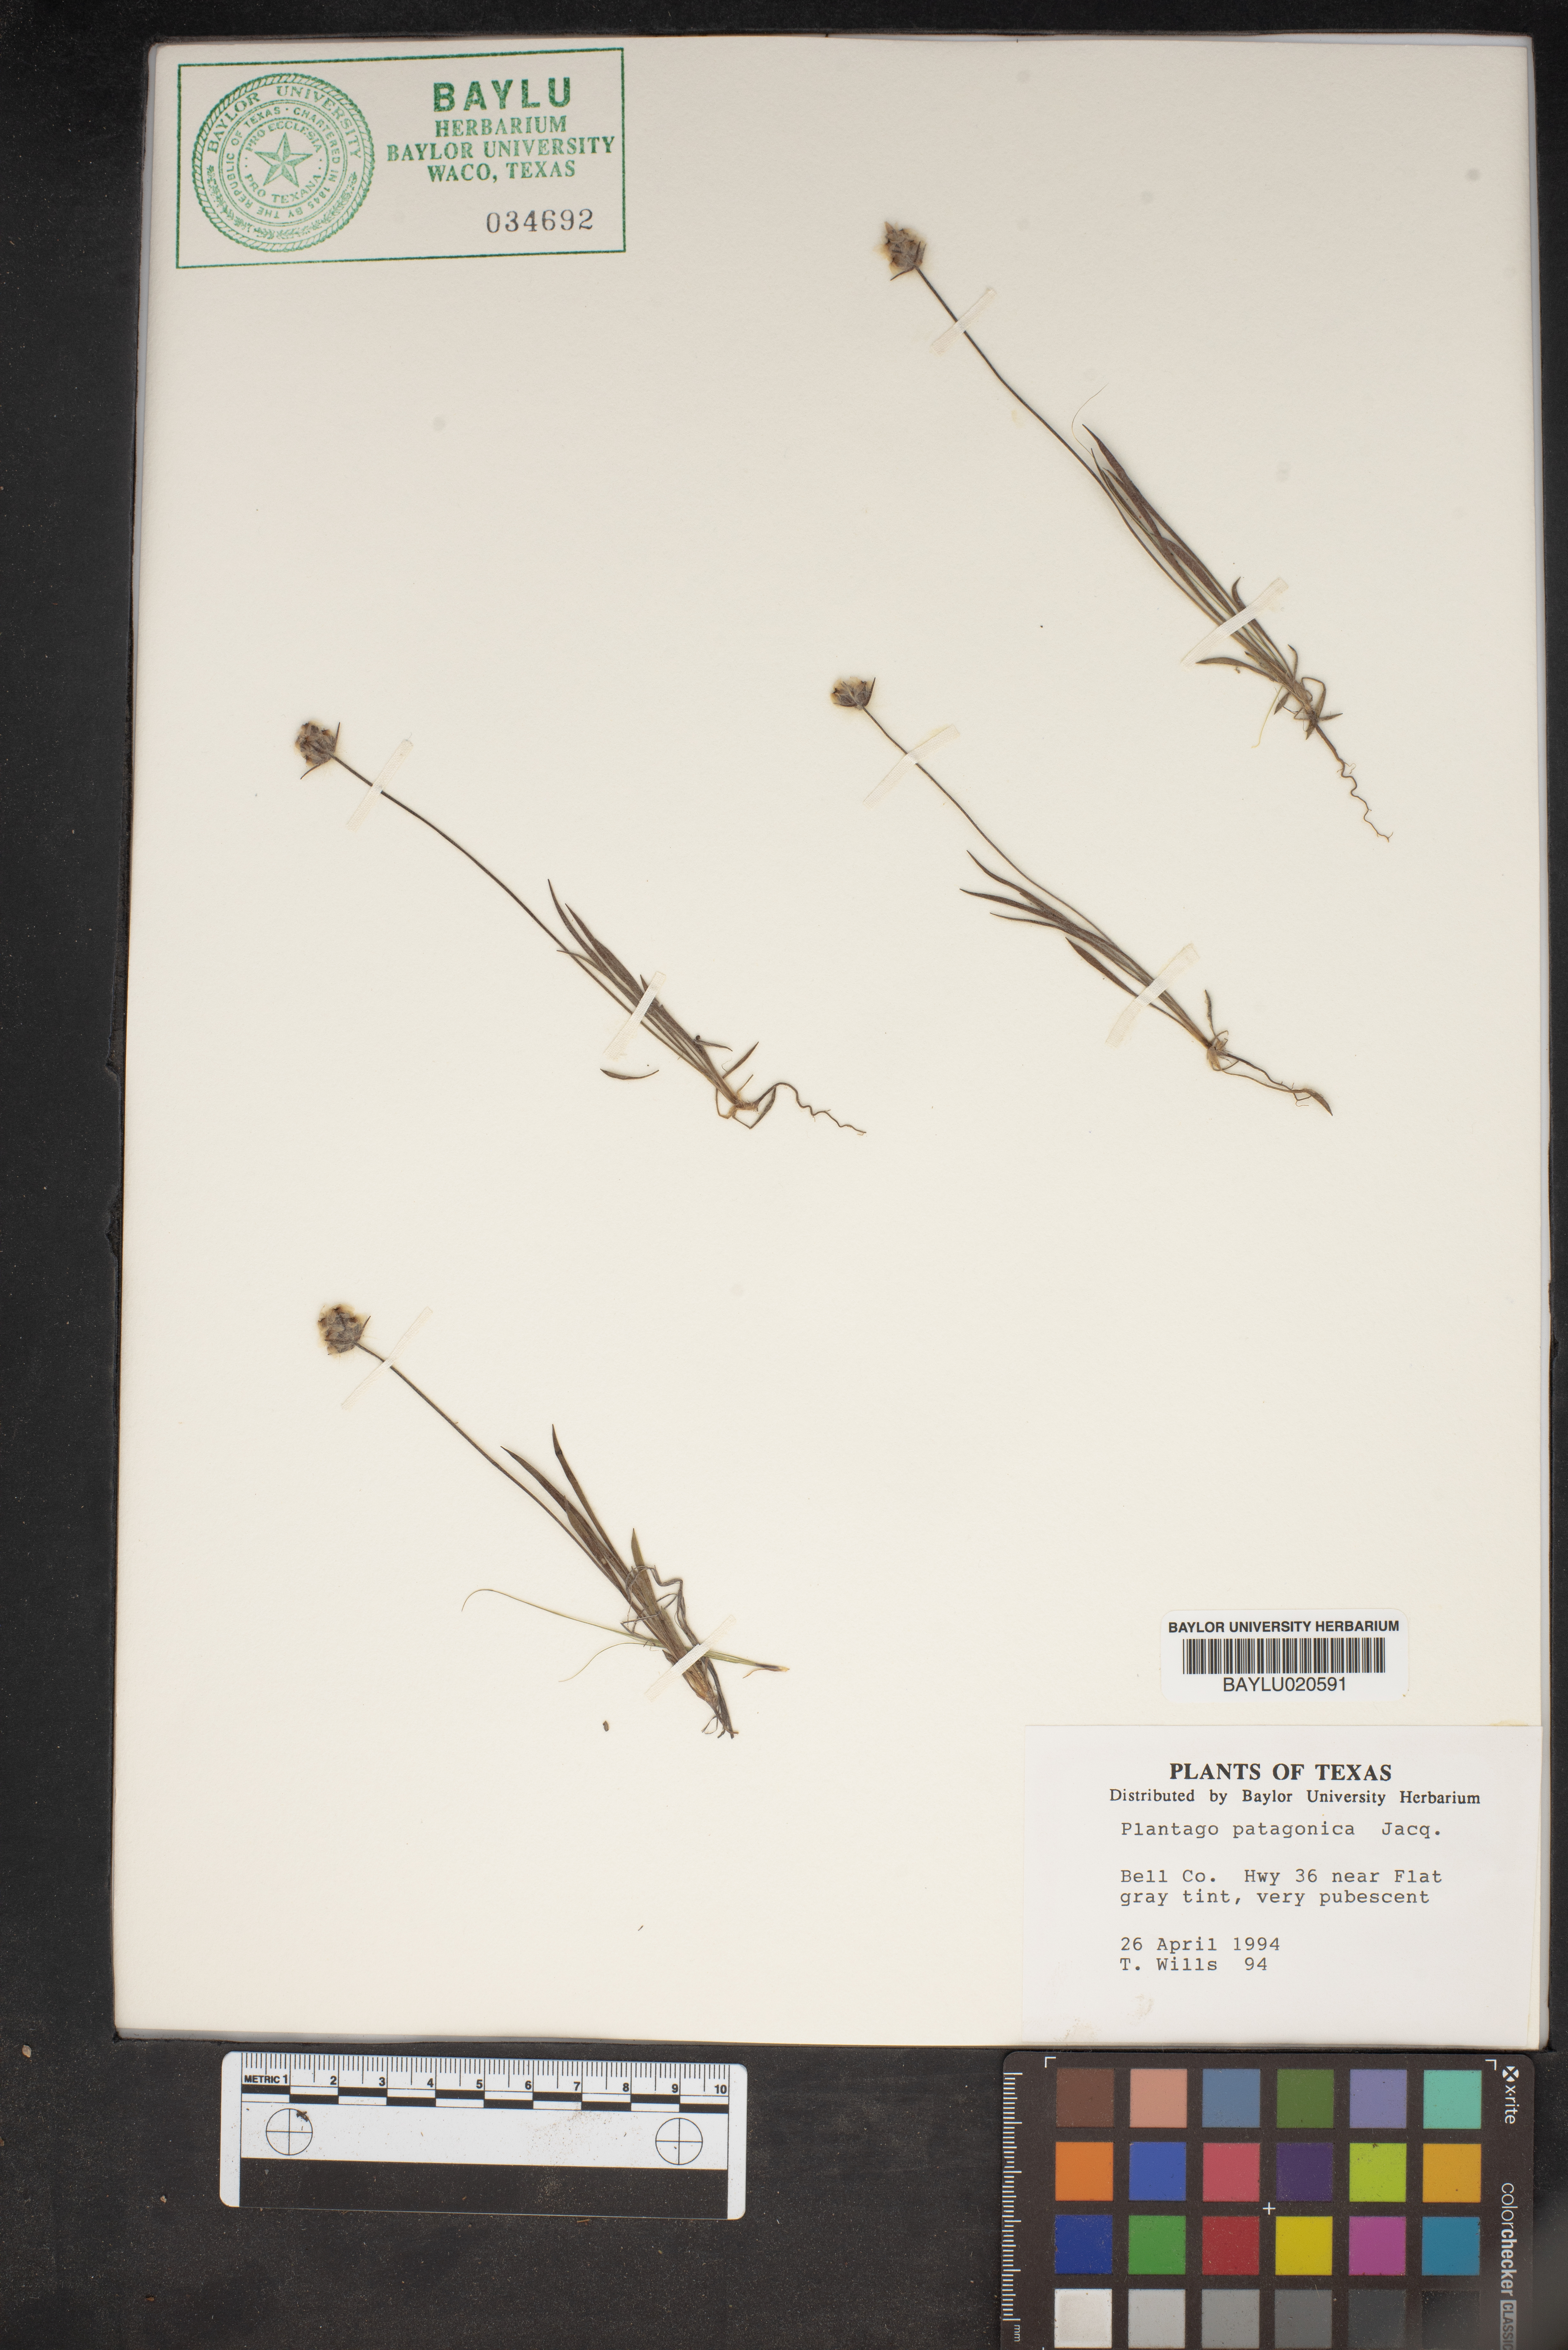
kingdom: Plantae
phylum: Tracheophyta
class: Magnoliopsida
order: Lamiales
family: Plantaginaceae
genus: Plantago
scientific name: Plantago patagonica
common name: Patagonia indian-wheat
